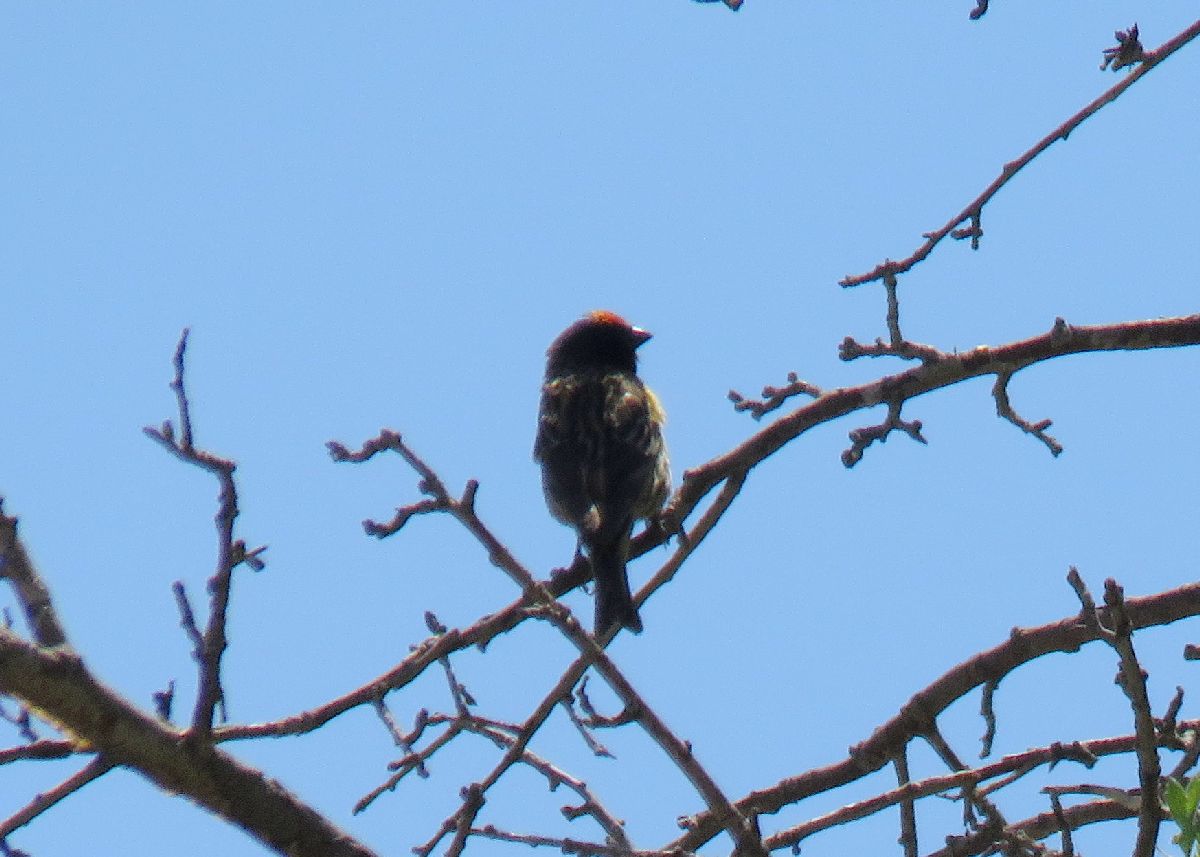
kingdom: Animalia
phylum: Chordata
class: Aves
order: Passeriformes
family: Fringillidae
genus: Serinus
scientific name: Serinus pusillus
